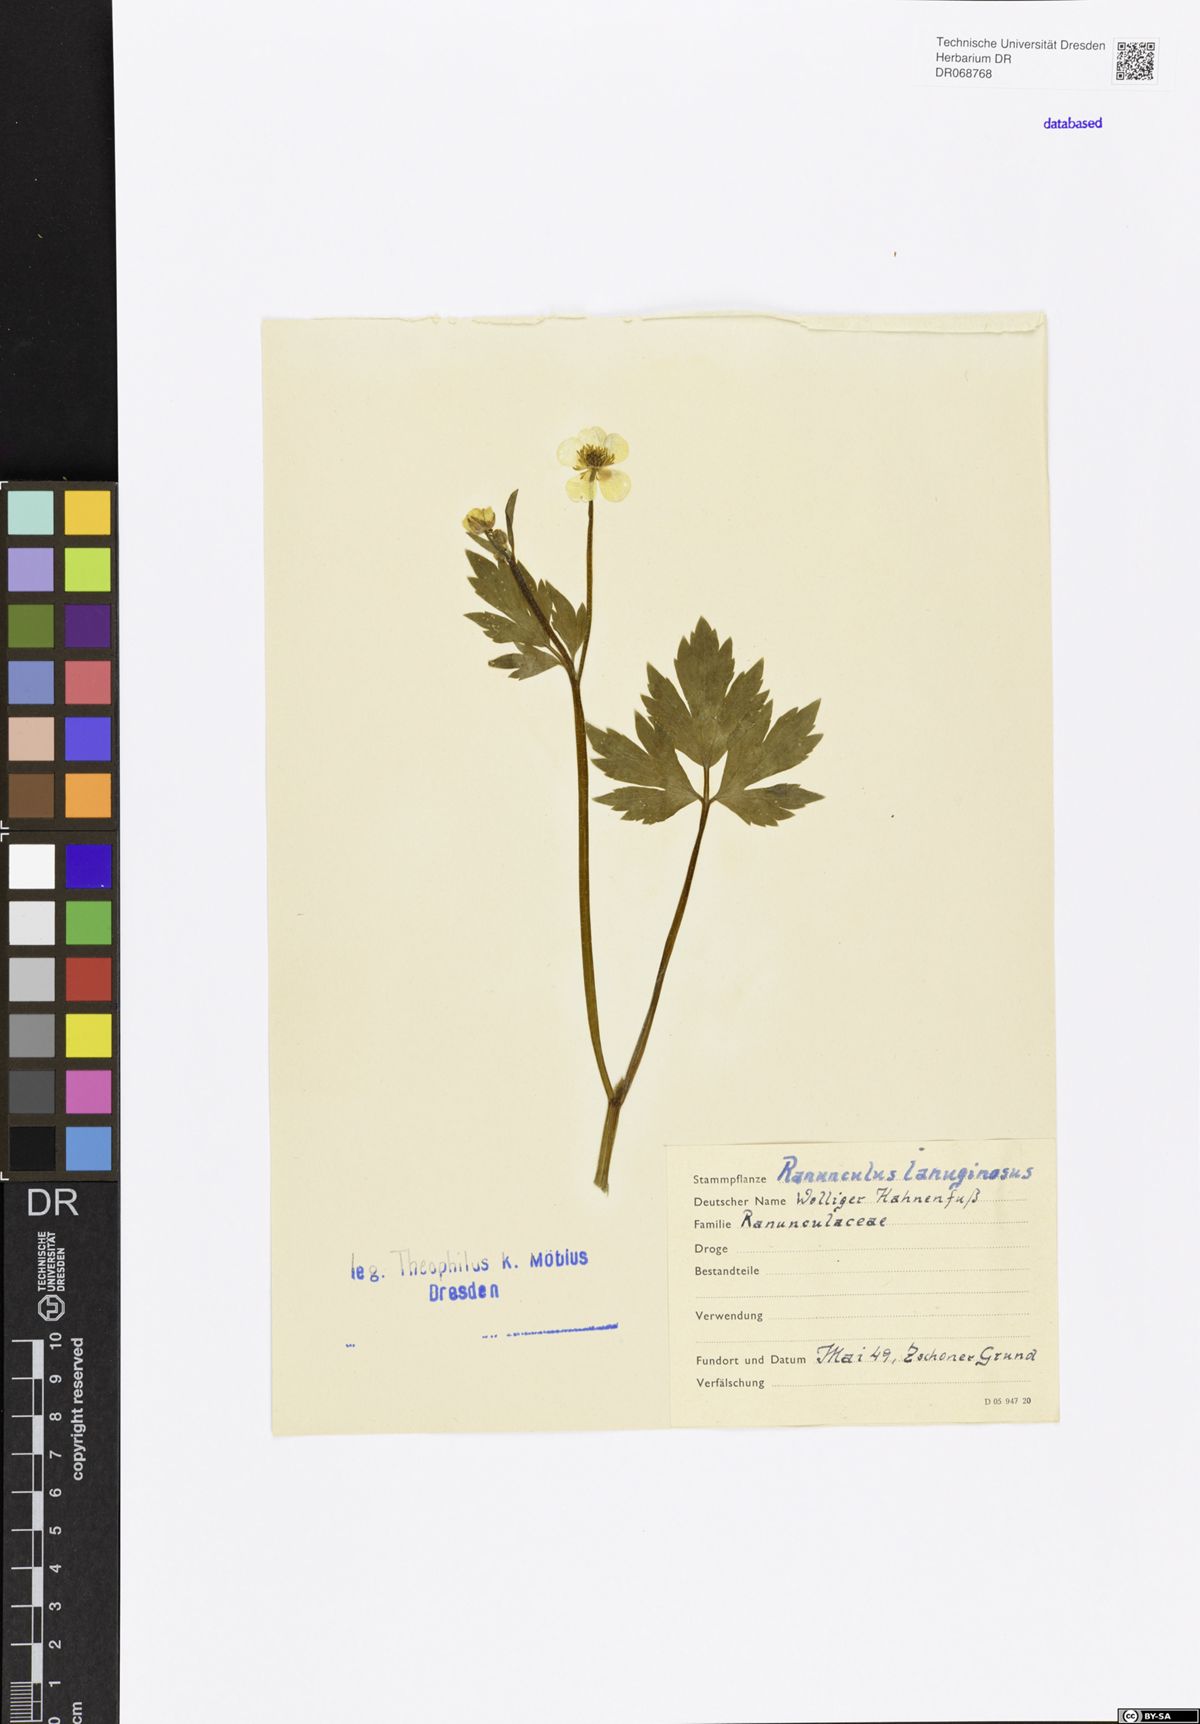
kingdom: Plantae
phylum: Tracheophyta
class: Magnoliopsida
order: Ranunculales
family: Ranunculaceae
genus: Ranunculus
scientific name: Ranunculus lanuginosus
